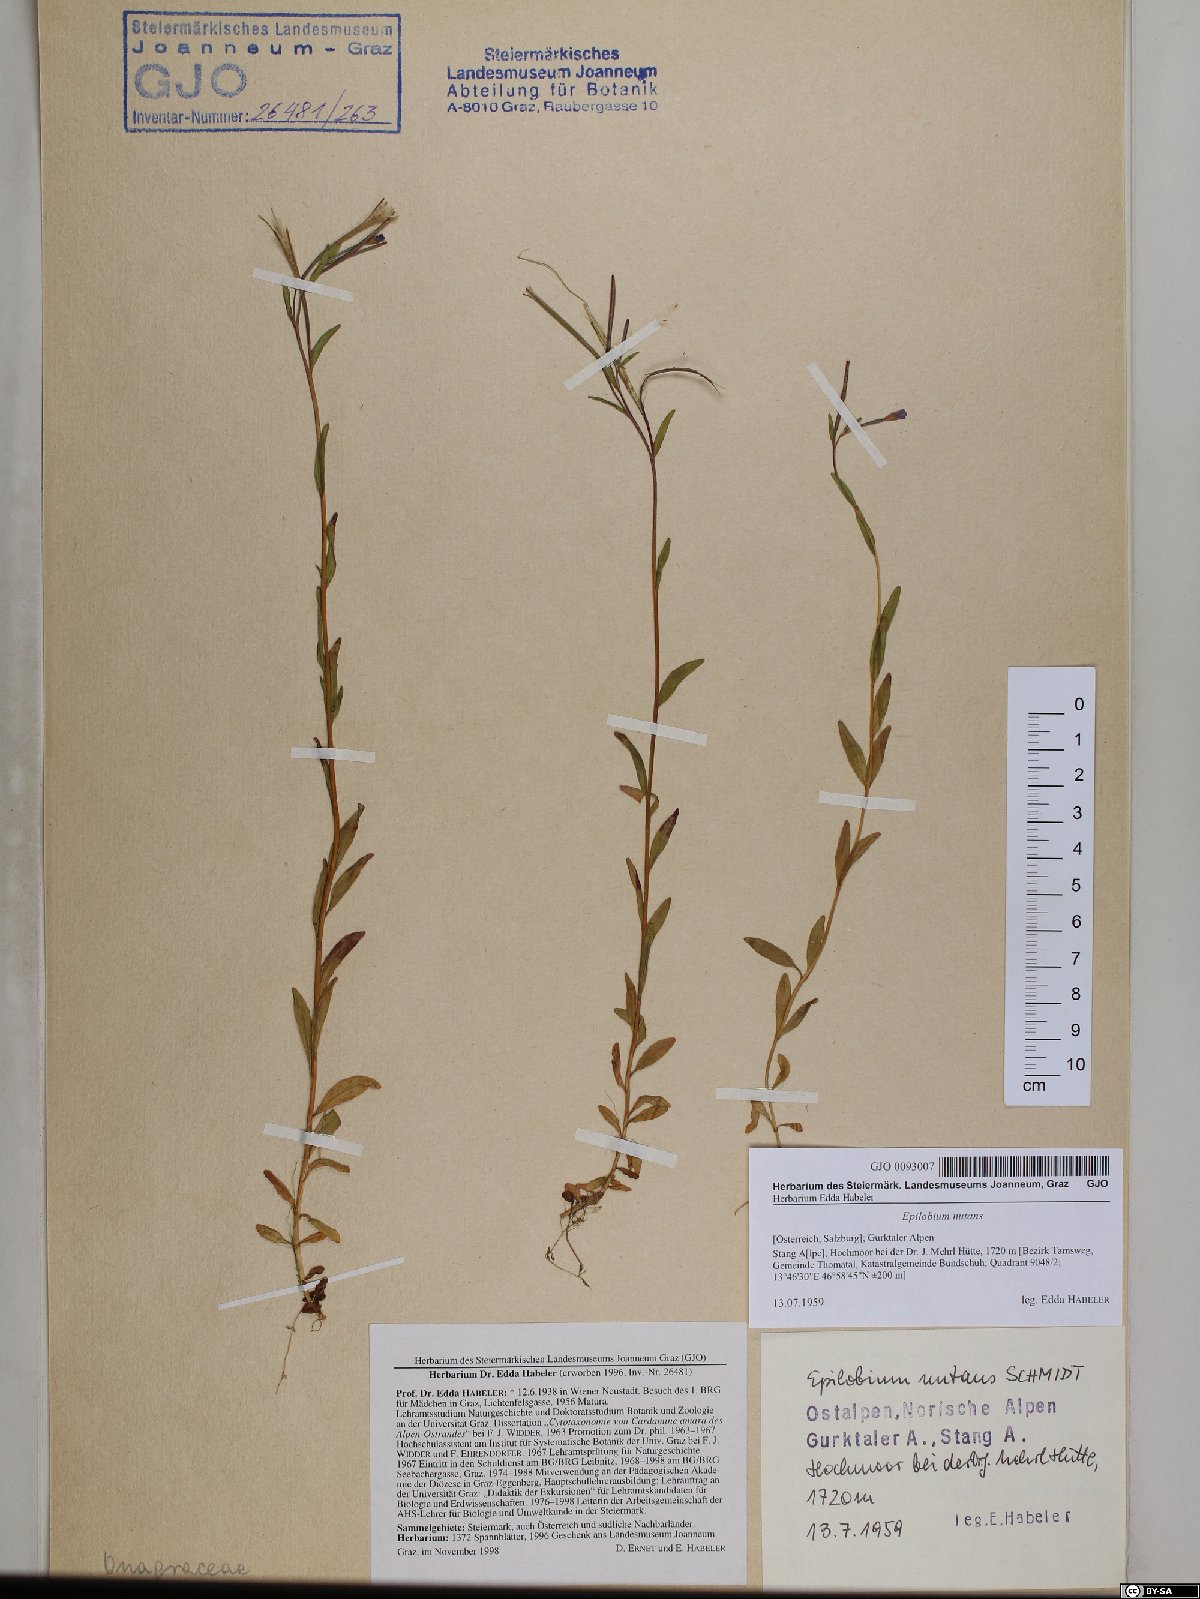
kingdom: Plantae
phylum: Tracheophyta
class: Magnoliopsida
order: Myrtales
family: Onagraceae
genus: Epilobium
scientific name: Epilobium nutans
